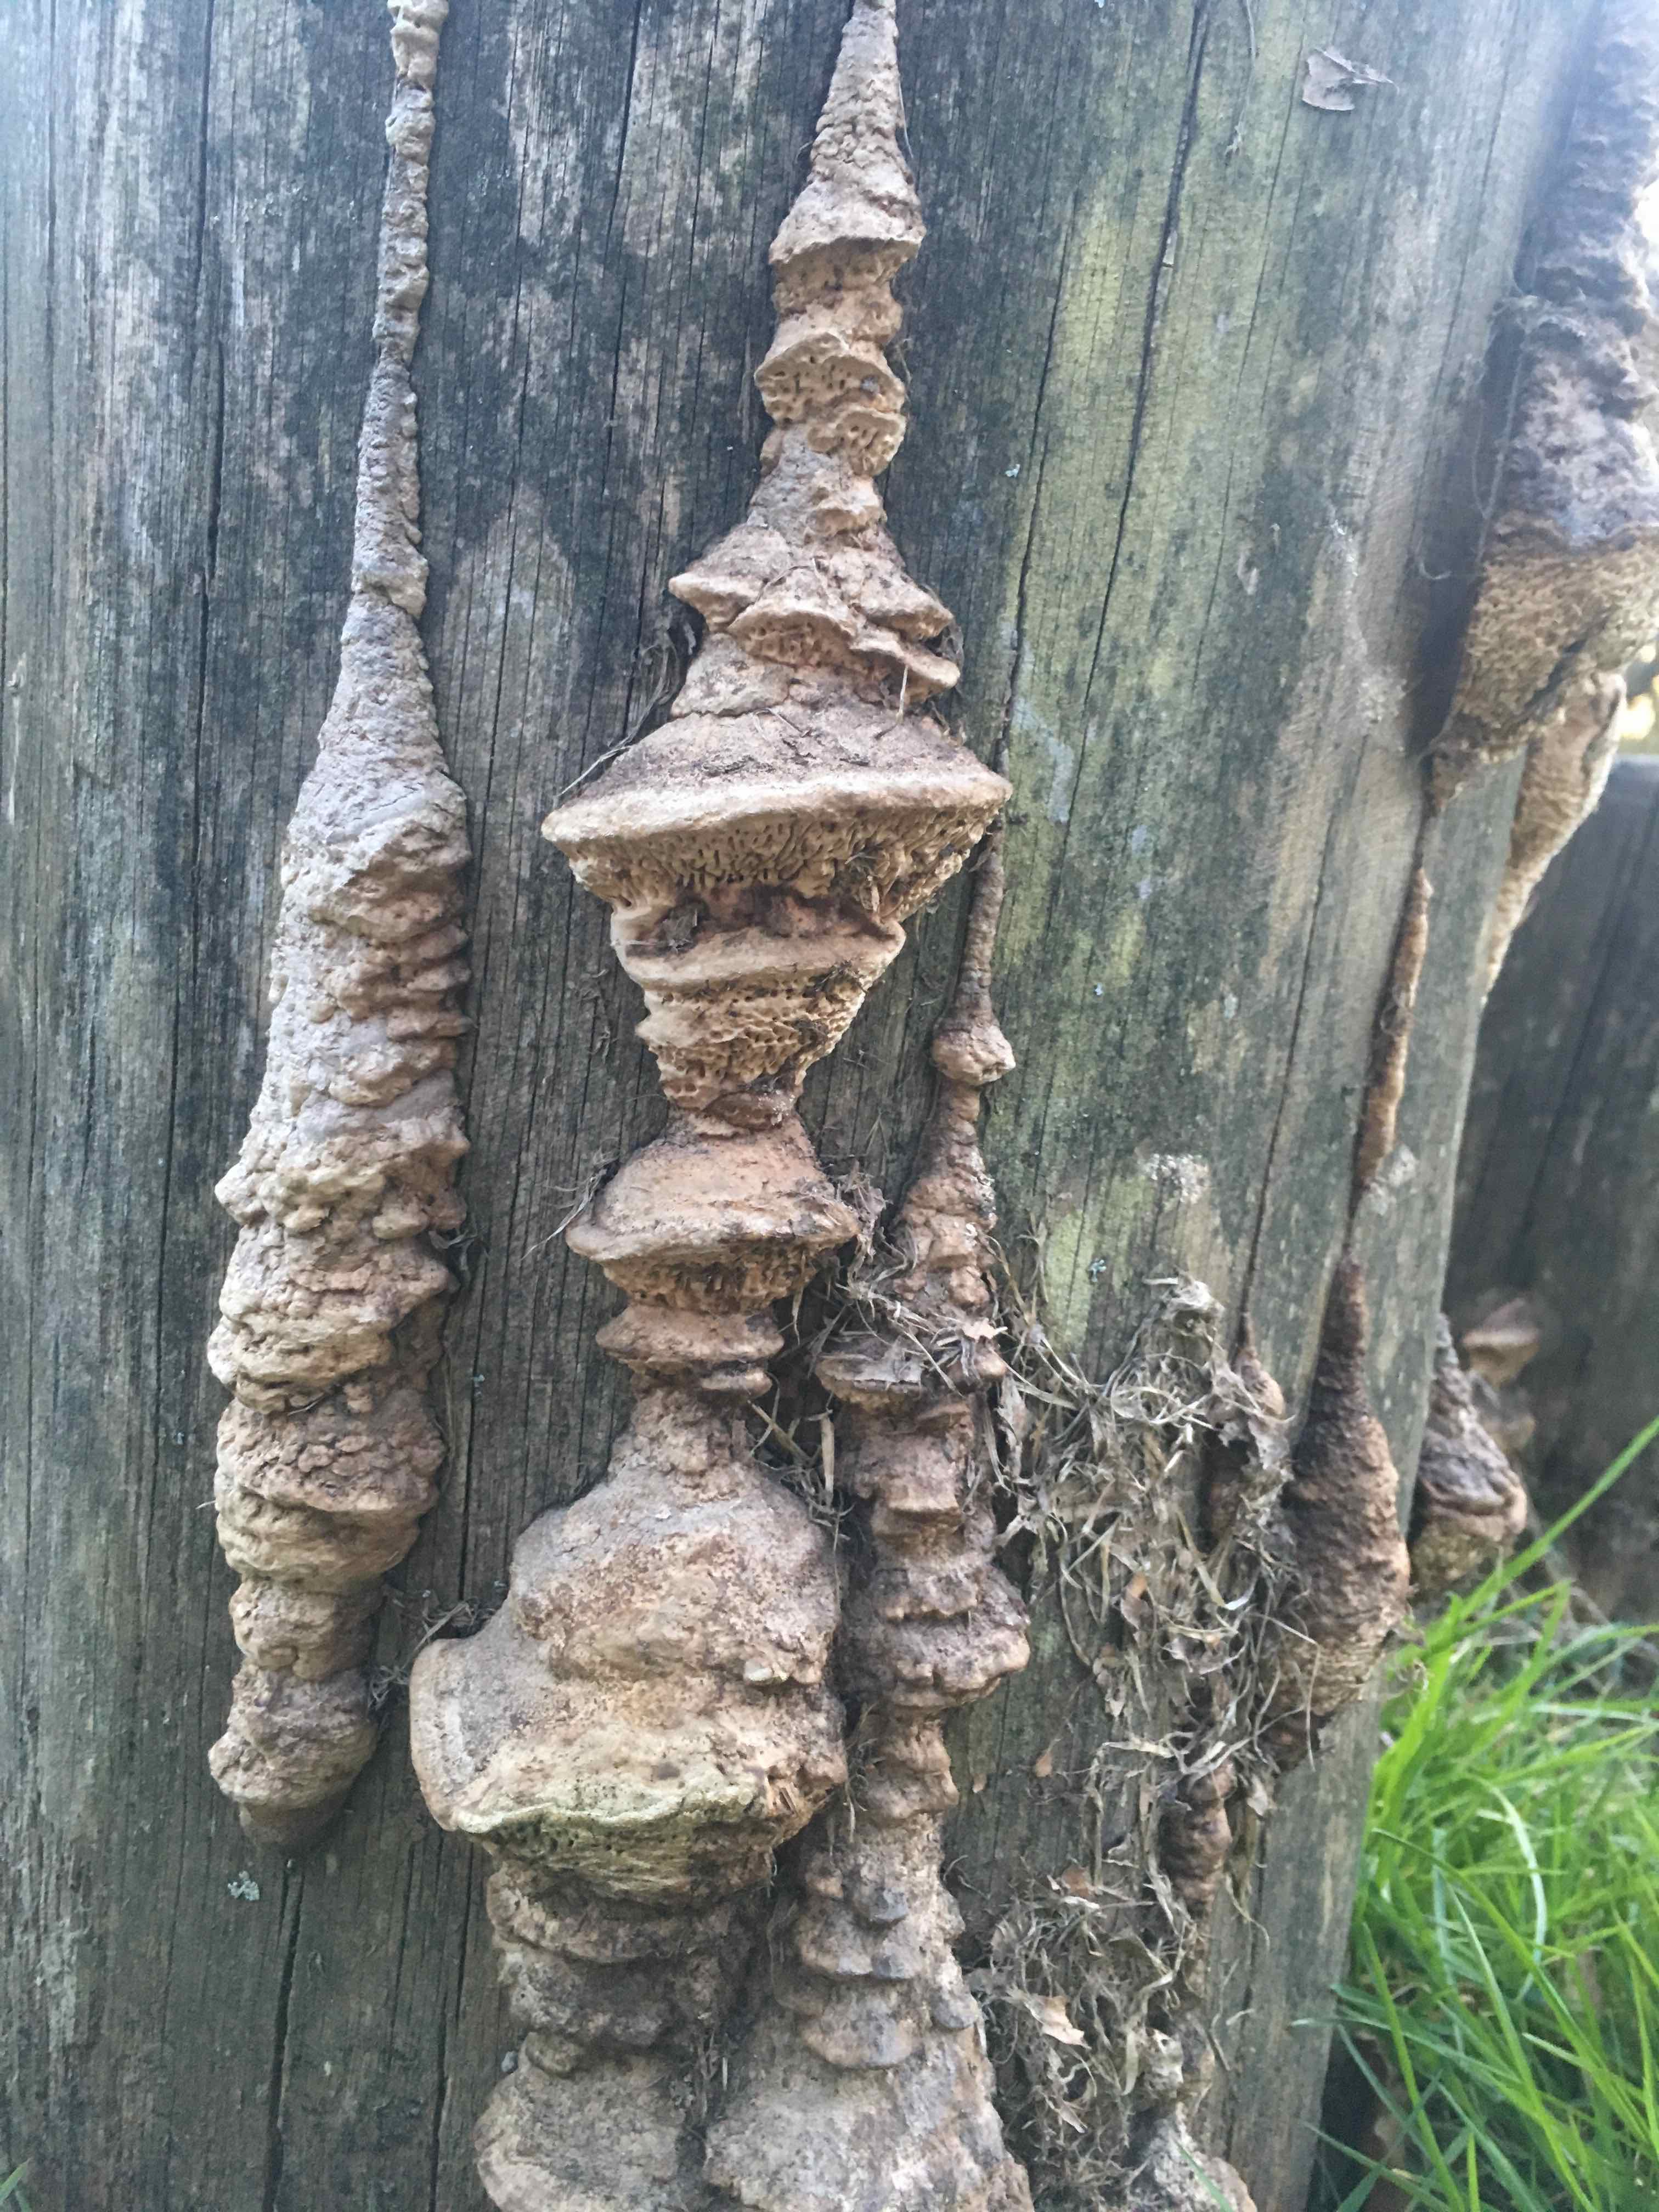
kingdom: Fungi
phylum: Basidiomycota
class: Agaricomycetes
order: Polyporales
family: Fomitopsidaceae
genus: Daedalea
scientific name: Daedalea quercina
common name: ege-labyrintsvamp
